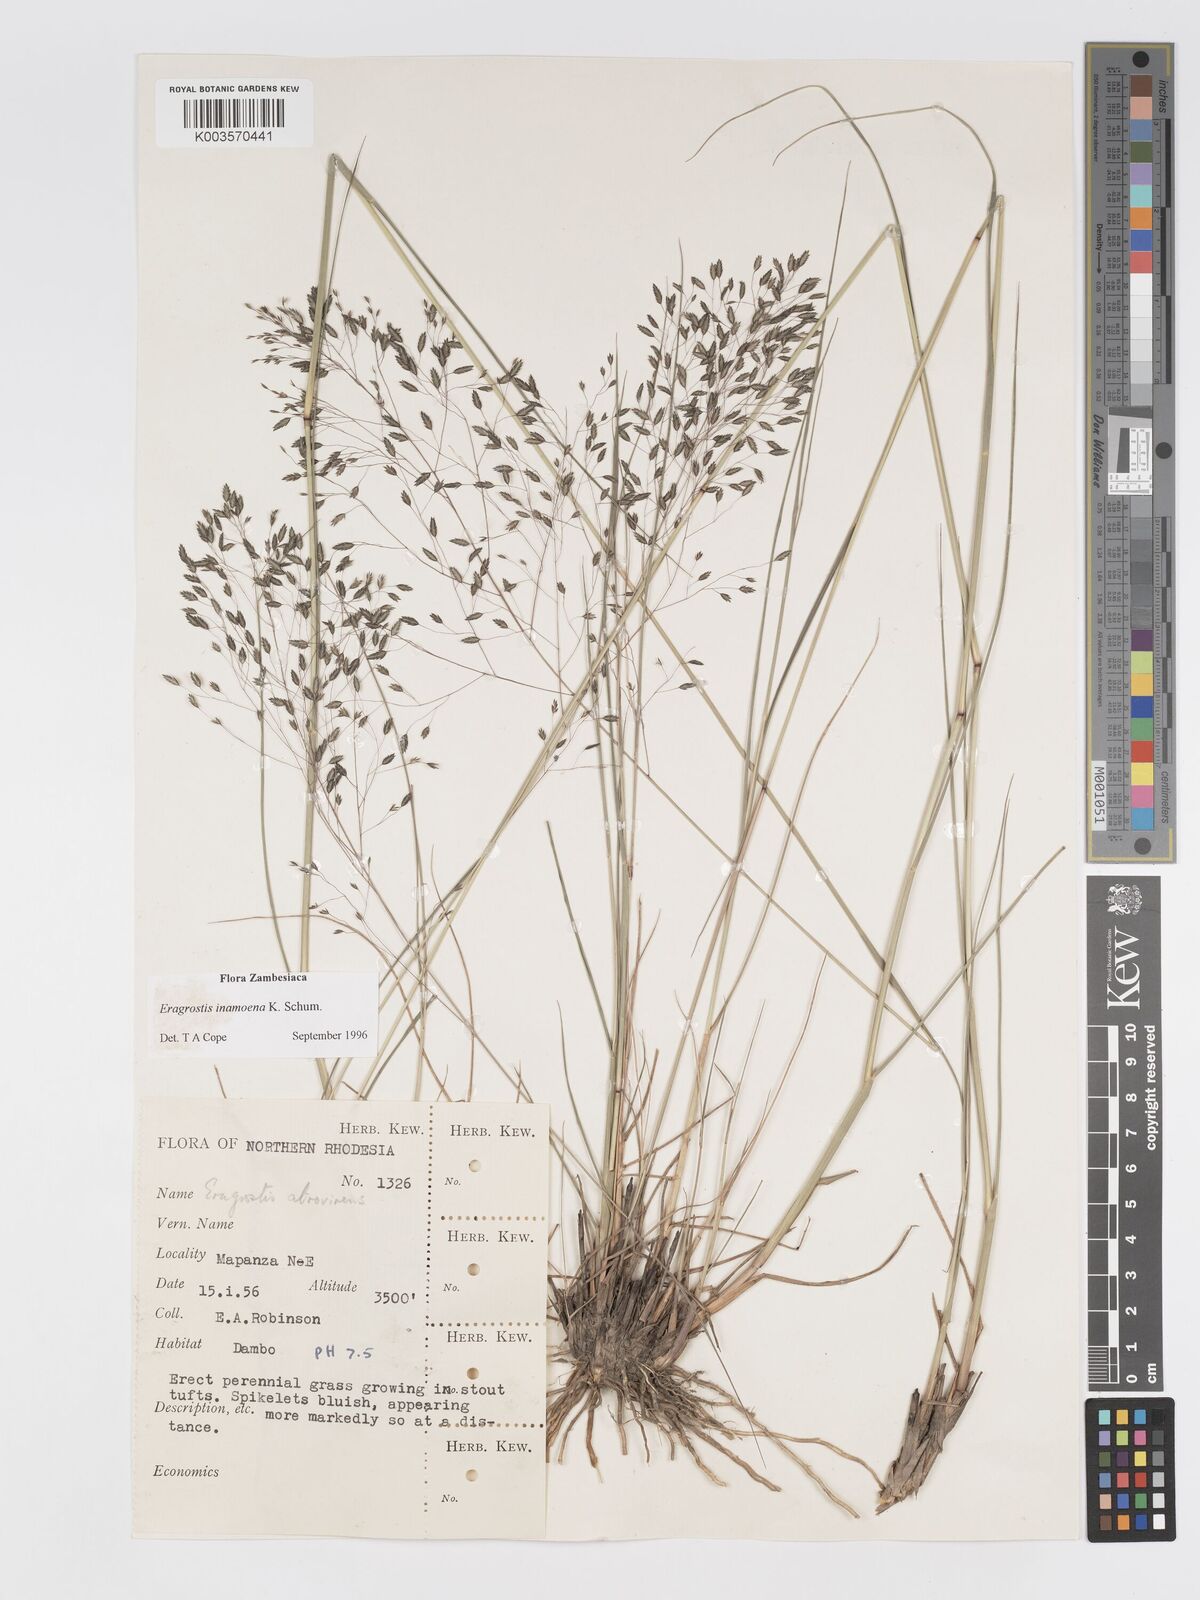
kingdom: Plantae
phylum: Tracheophyta
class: Liliopsida
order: Poales
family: Poaceae
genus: Eragrostis
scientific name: Eragrostis inamoena
